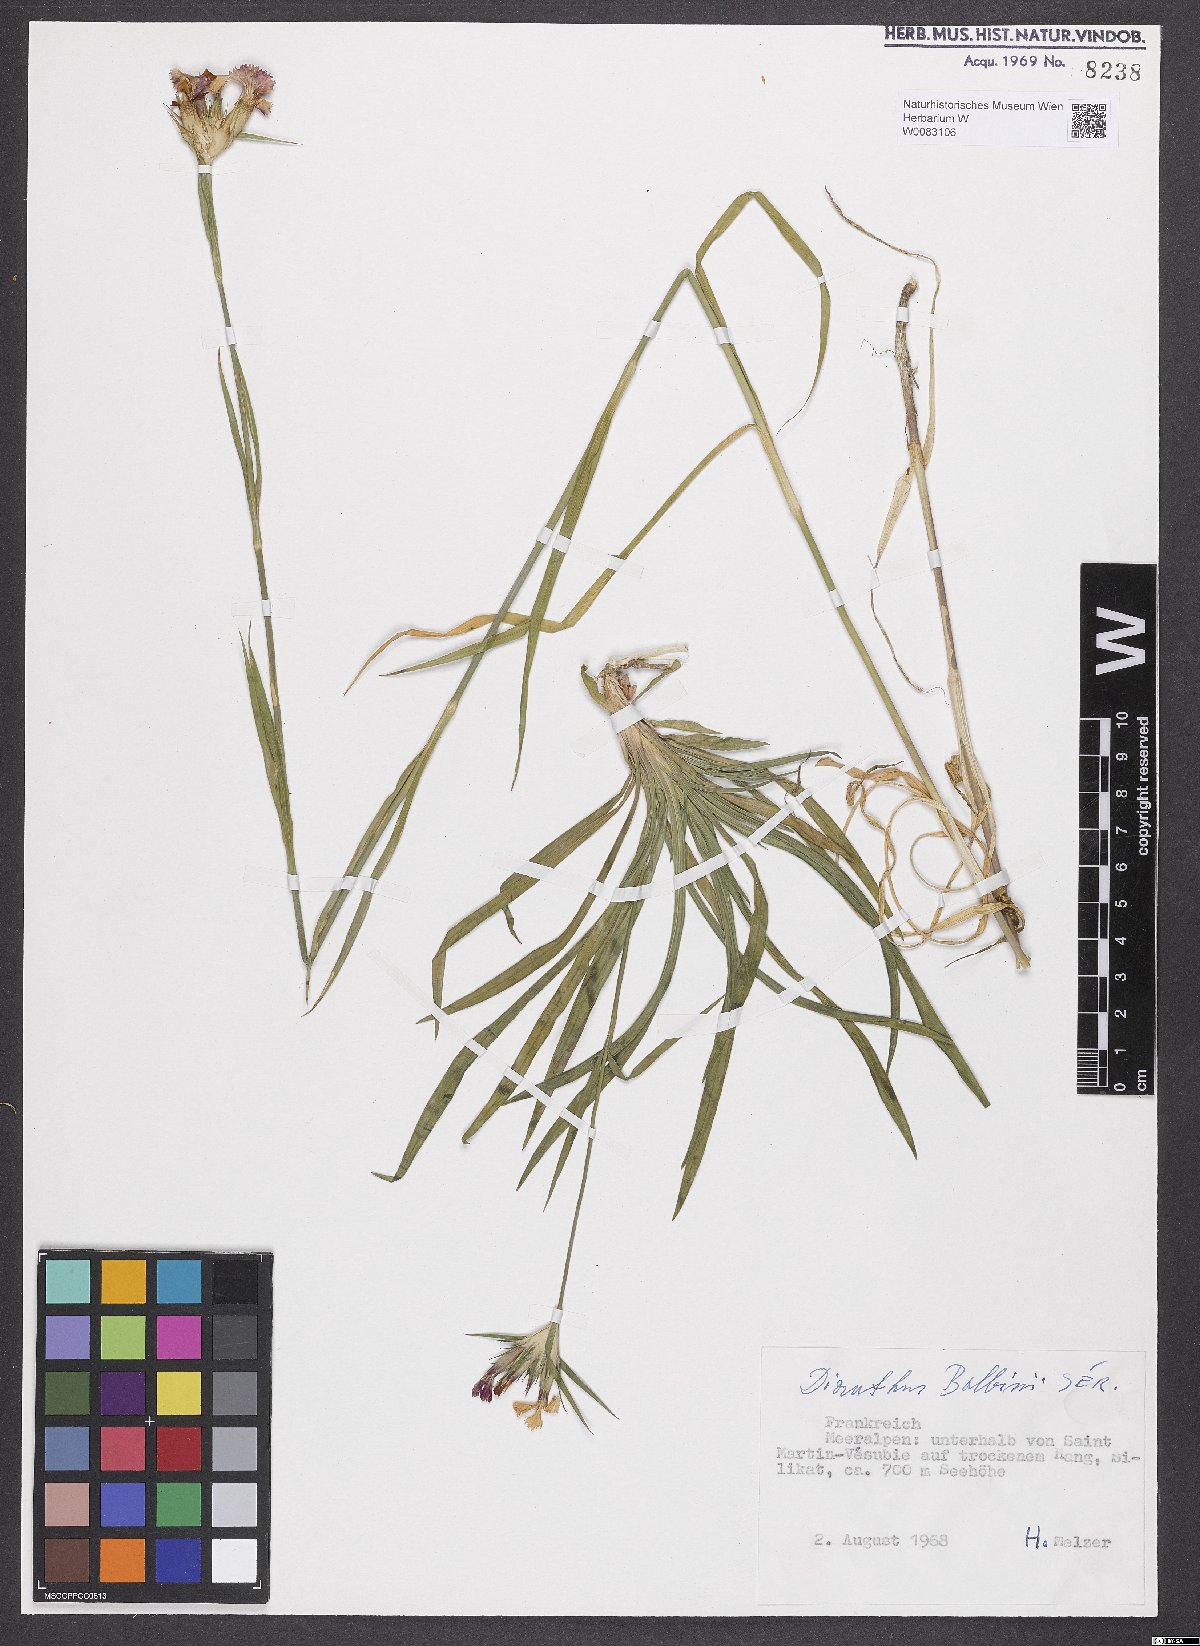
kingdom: Plantae
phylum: Tracheophyta
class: Magnoliopsida
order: Caryophyllales
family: Caryophyllaceae
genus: Dianthus
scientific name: Dianthus crassipes
